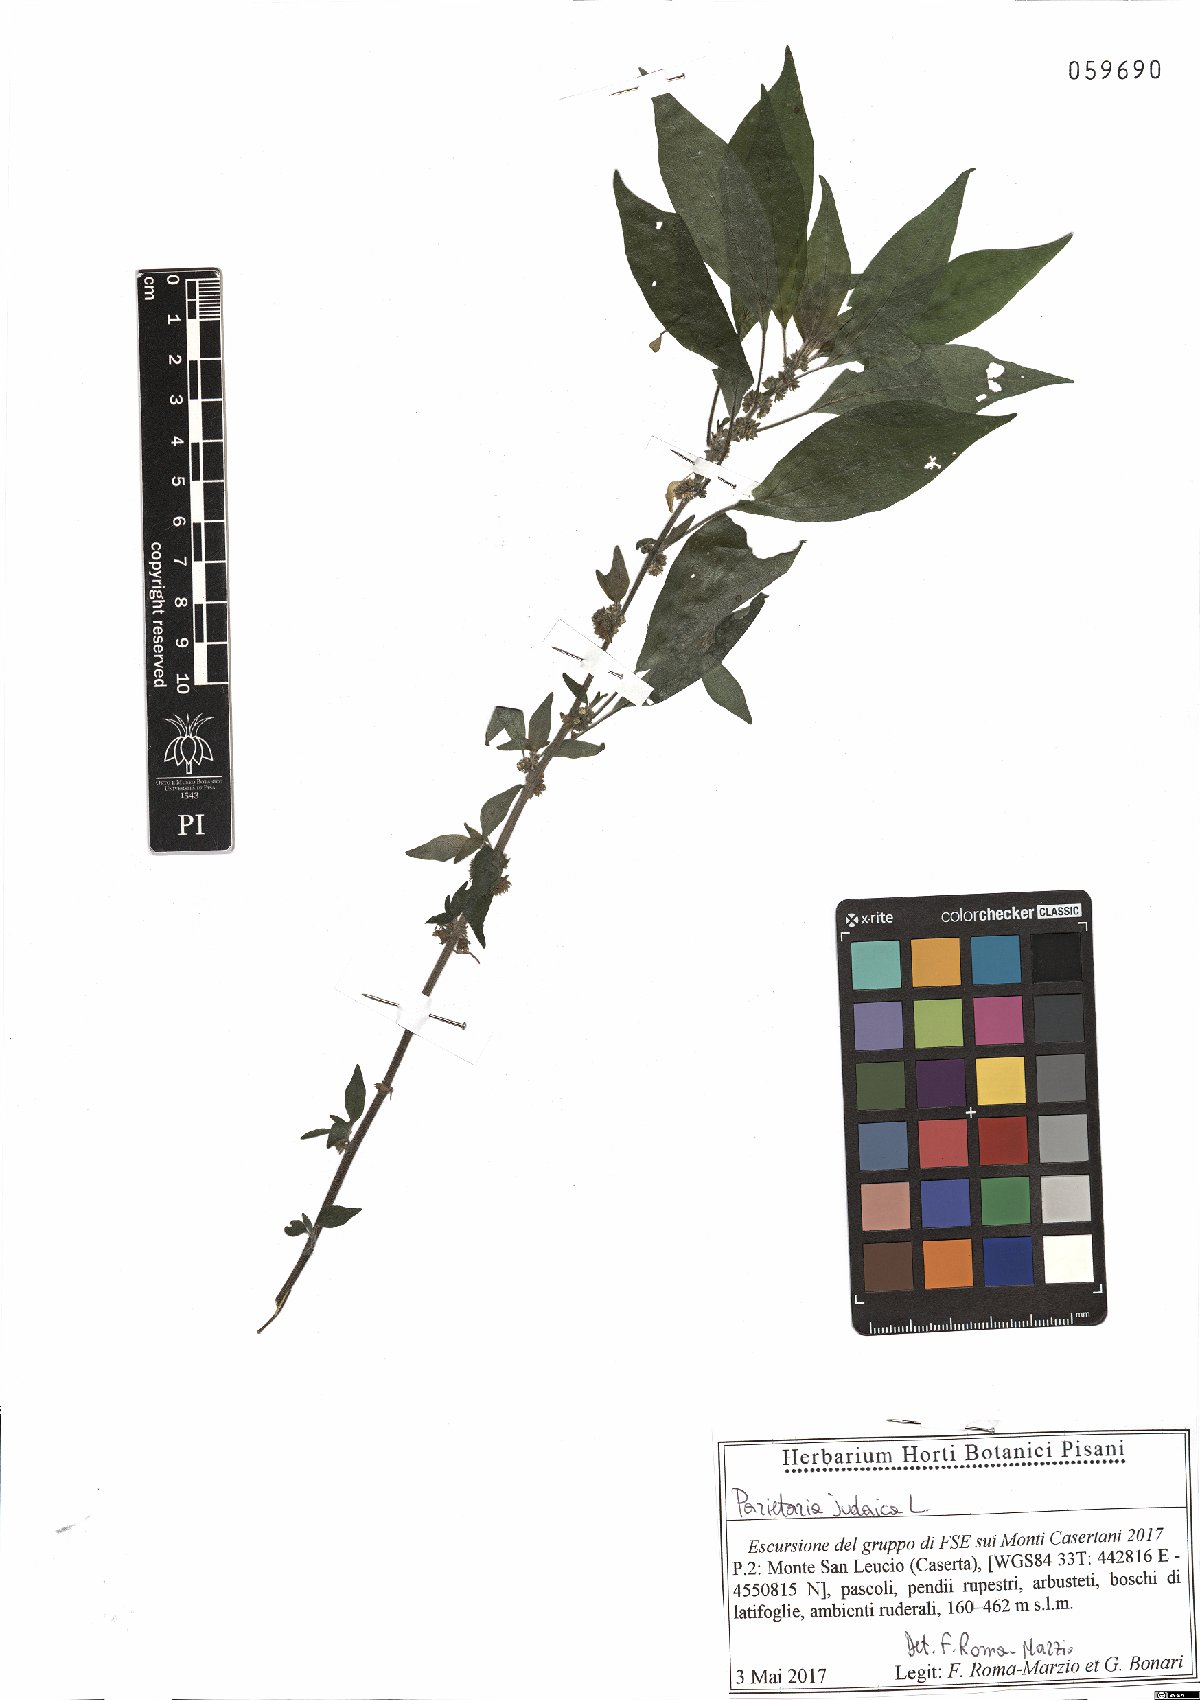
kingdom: Plantae
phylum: Tracheophyta
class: Magnoliopsida
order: Rosales
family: Urticaceae
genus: Parietaria
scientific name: Parietaria judaica
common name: Pellitory-of-the-wall
